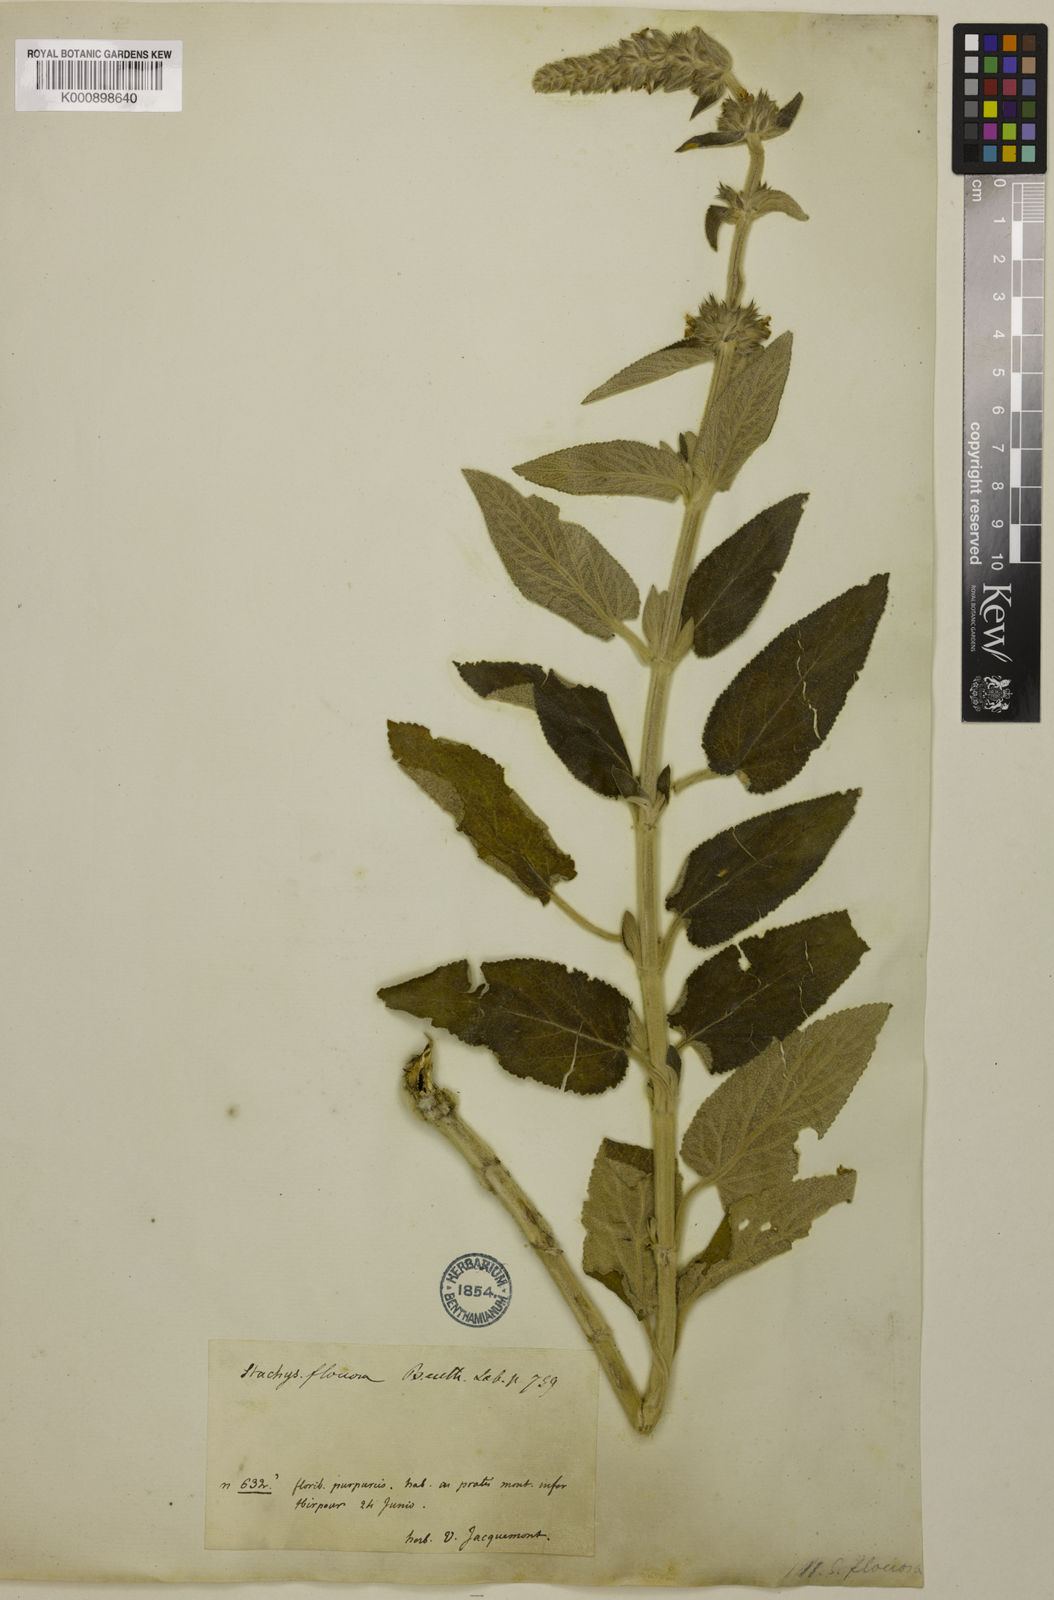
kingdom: Plantae
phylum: Tracheophyta
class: Magnoliopsida
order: Lamiales
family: Lamiaceae
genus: Stachys
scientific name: Stachys floccosa
